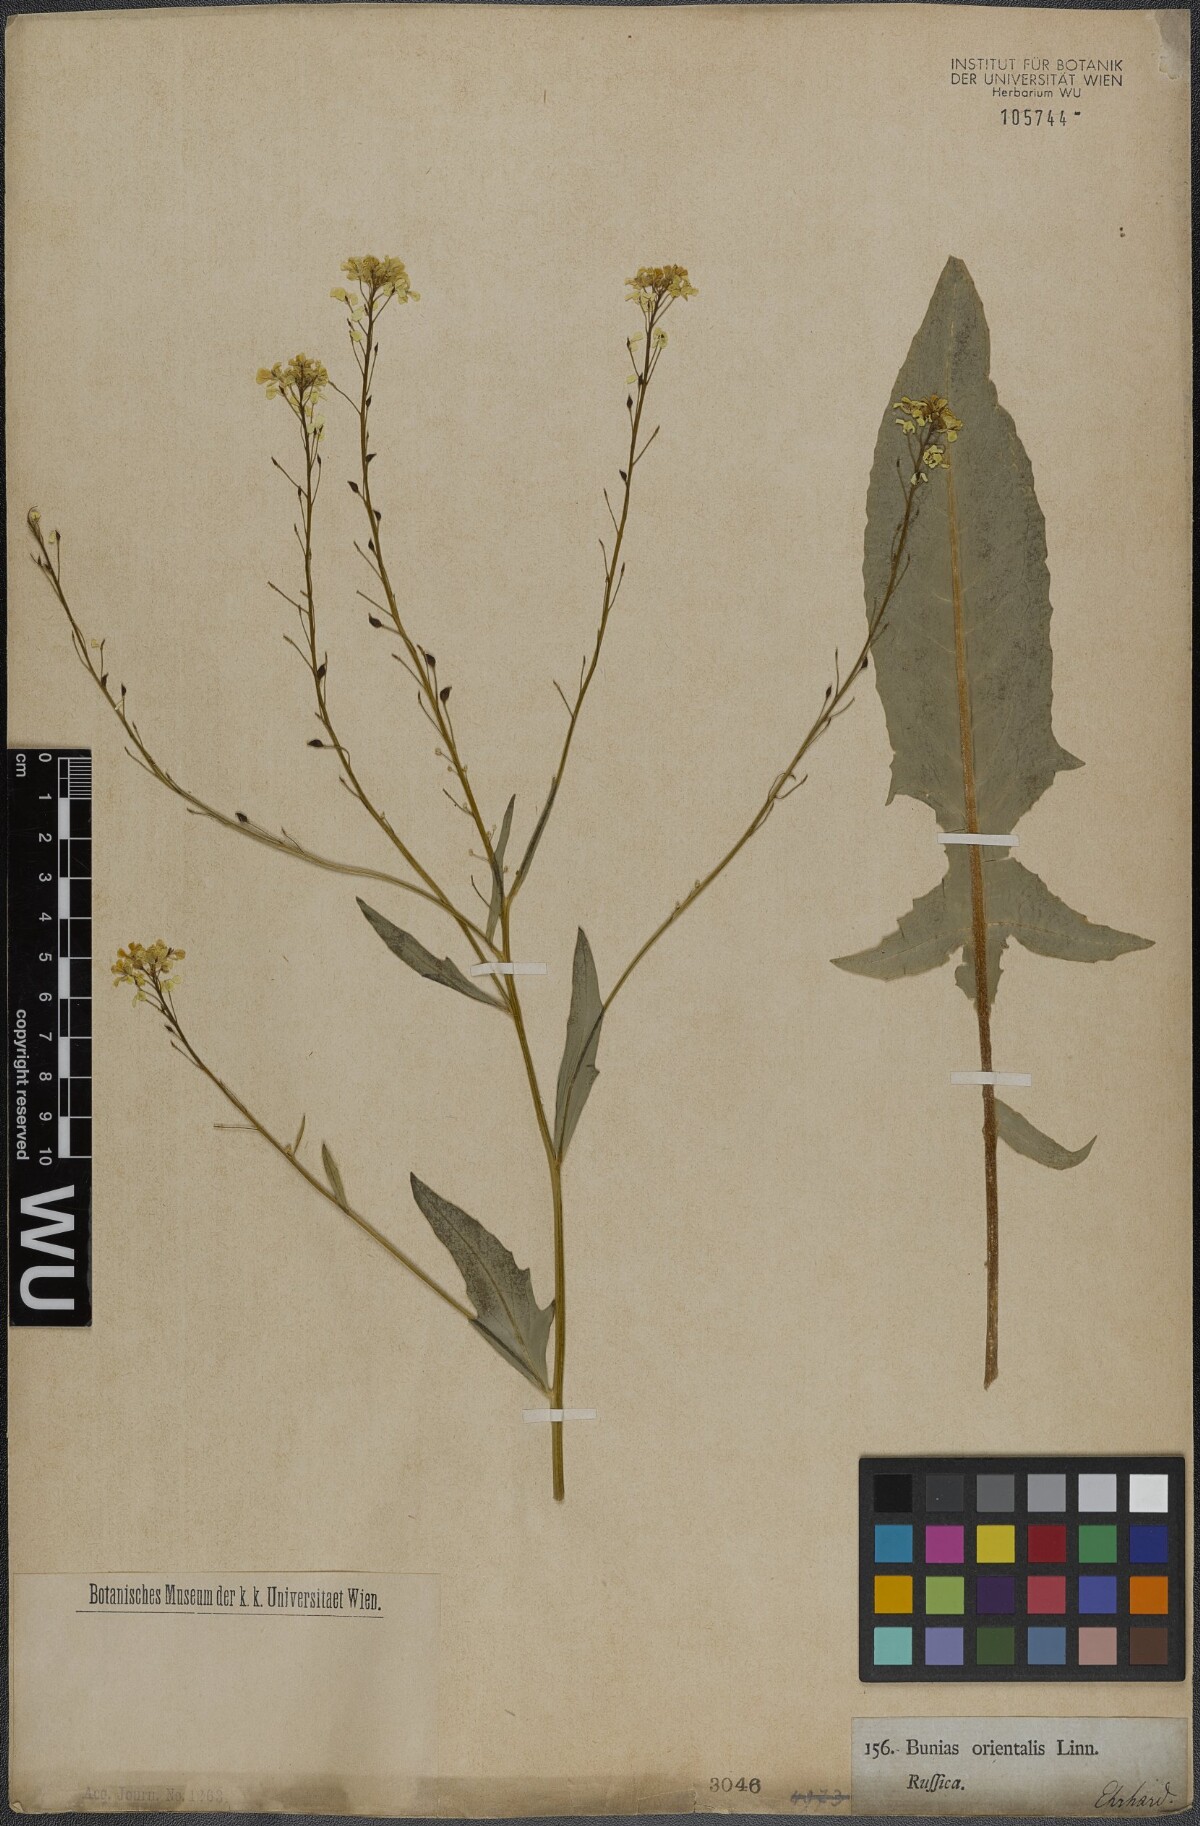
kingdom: Plantae
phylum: Tracheophyta
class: Magnoliopsida
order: Brassicales
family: Brassicaceae
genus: Bunias
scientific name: Bunias orientalis
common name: Warty-cabbage
